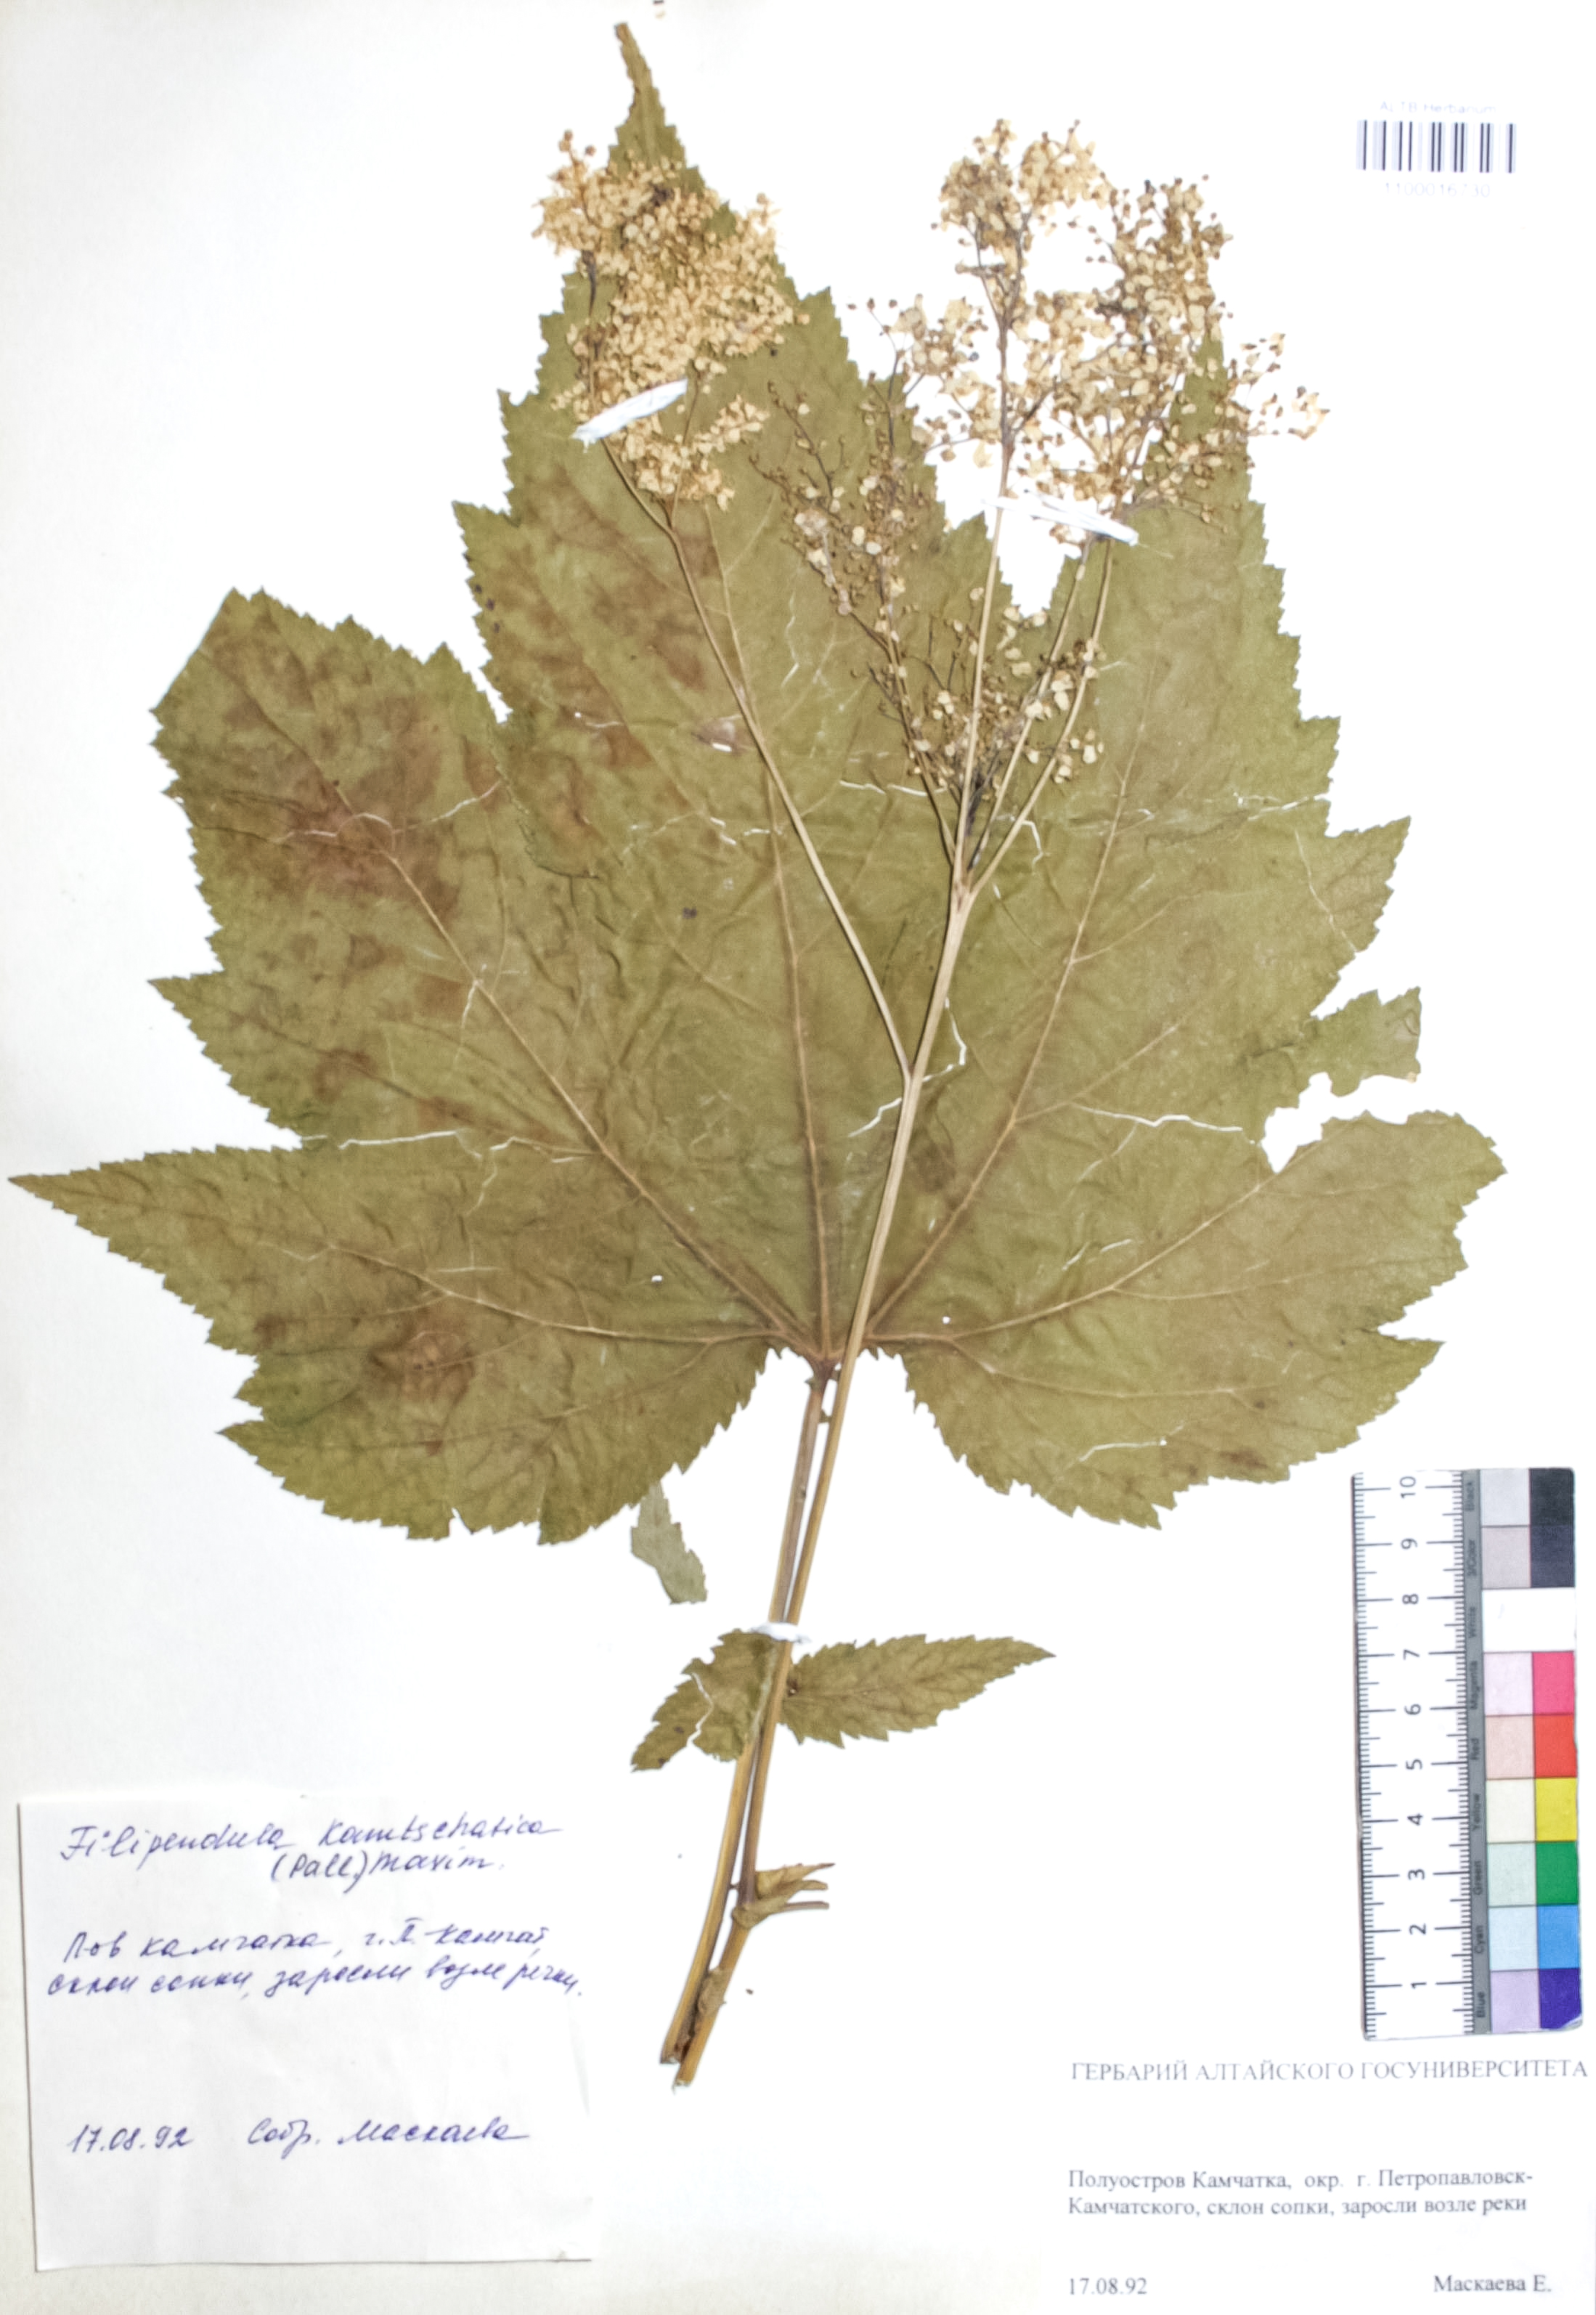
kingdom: Plantae
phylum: Tracheophyta
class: Magnoliopsida
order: Rosales
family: Rosaceae
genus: Filipendula
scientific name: Filipendula camtschatica
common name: Giant meadowsweet
